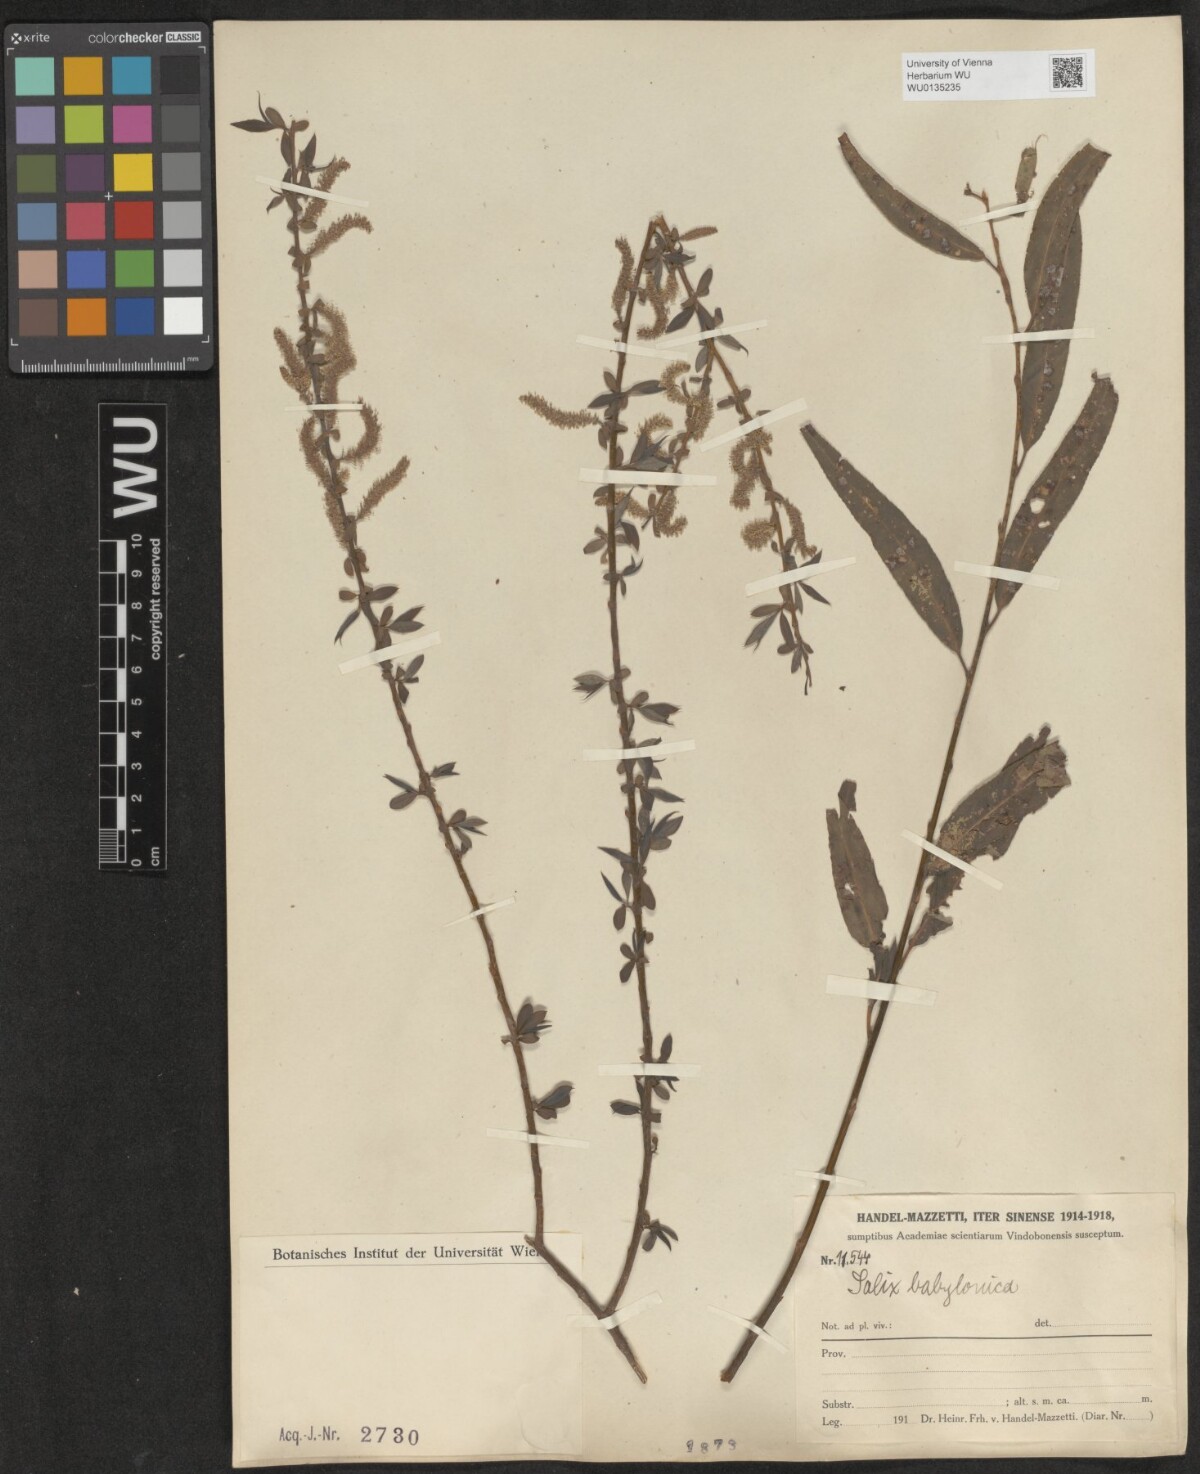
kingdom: Plantae
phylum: Tracheophyta
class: Magnoliopsida
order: Malpighiales
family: Salicaceae
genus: Salix
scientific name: Salix babylonica
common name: Weeping willow
